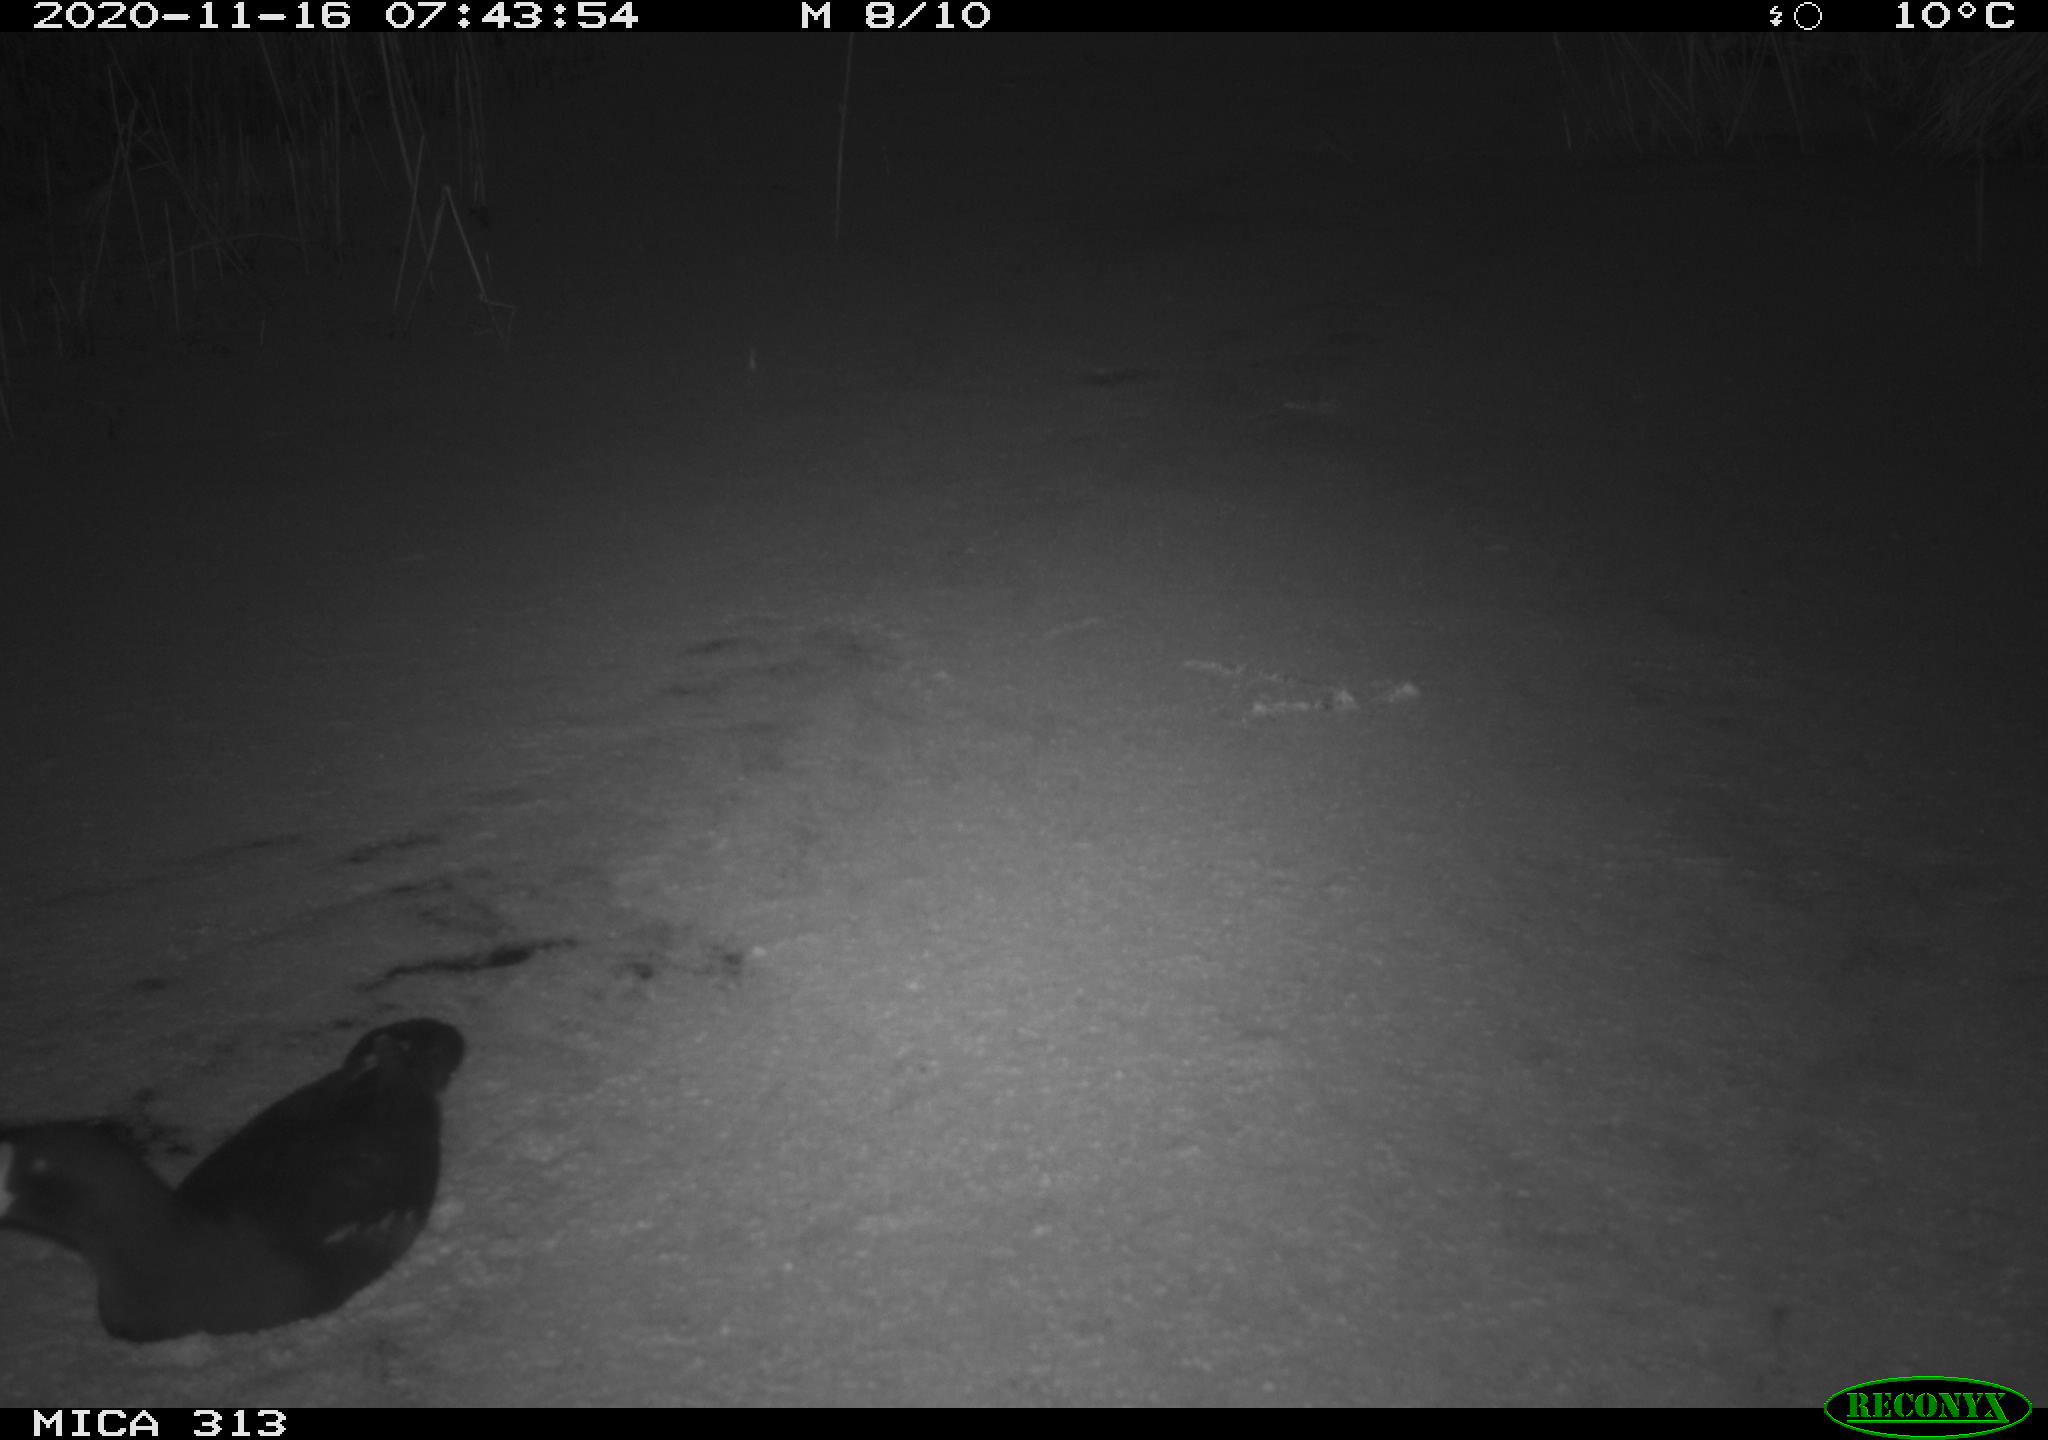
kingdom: Animalia
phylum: Chordata
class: Aves
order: Gruiformes
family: Rallidae
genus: Gallinula
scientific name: Gallinula chloropus
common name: Common moorhen
